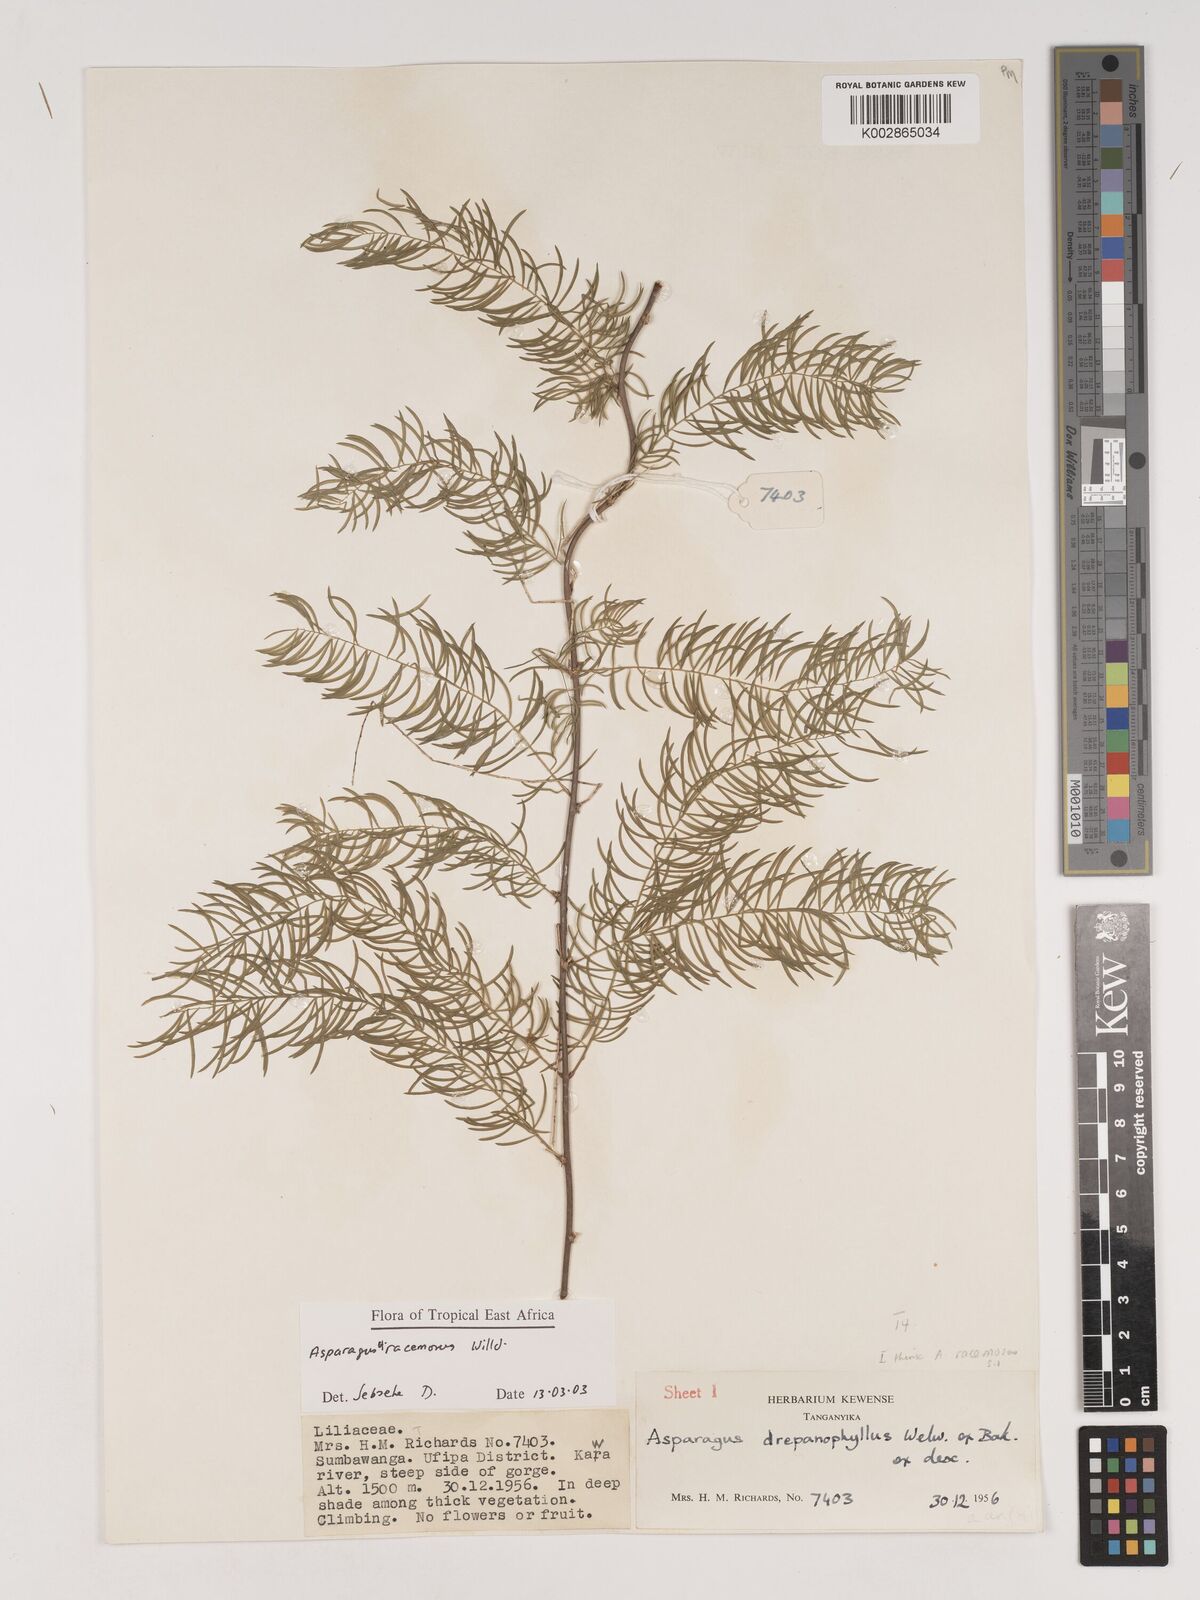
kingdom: Plantae
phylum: Tracheophyta
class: Liliopsida
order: Asparagales
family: Asparagaceae
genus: Asparagus
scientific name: Asparagus drepanophyllus
